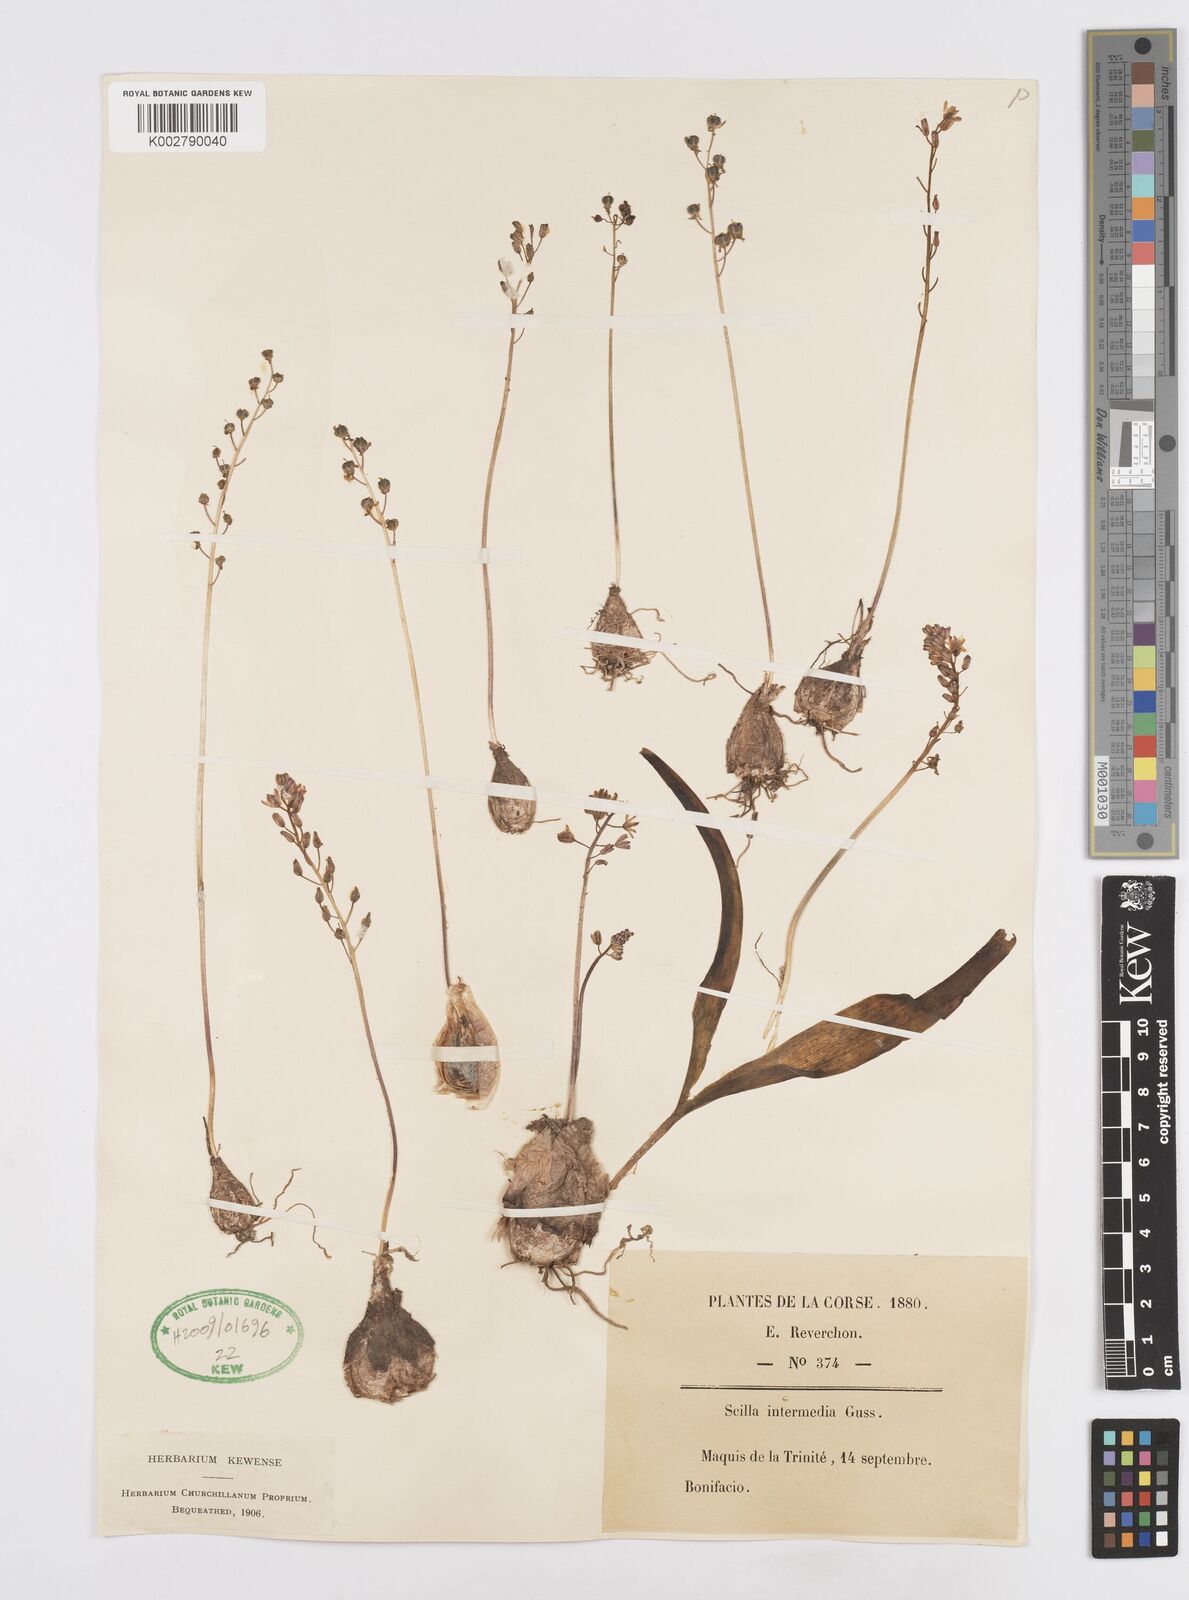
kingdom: Plantae
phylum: Tracheophyta
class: Liliopsida
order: Asparagales
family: Asparagaceae
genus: Prospero
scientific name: Prospero obtusifolium
